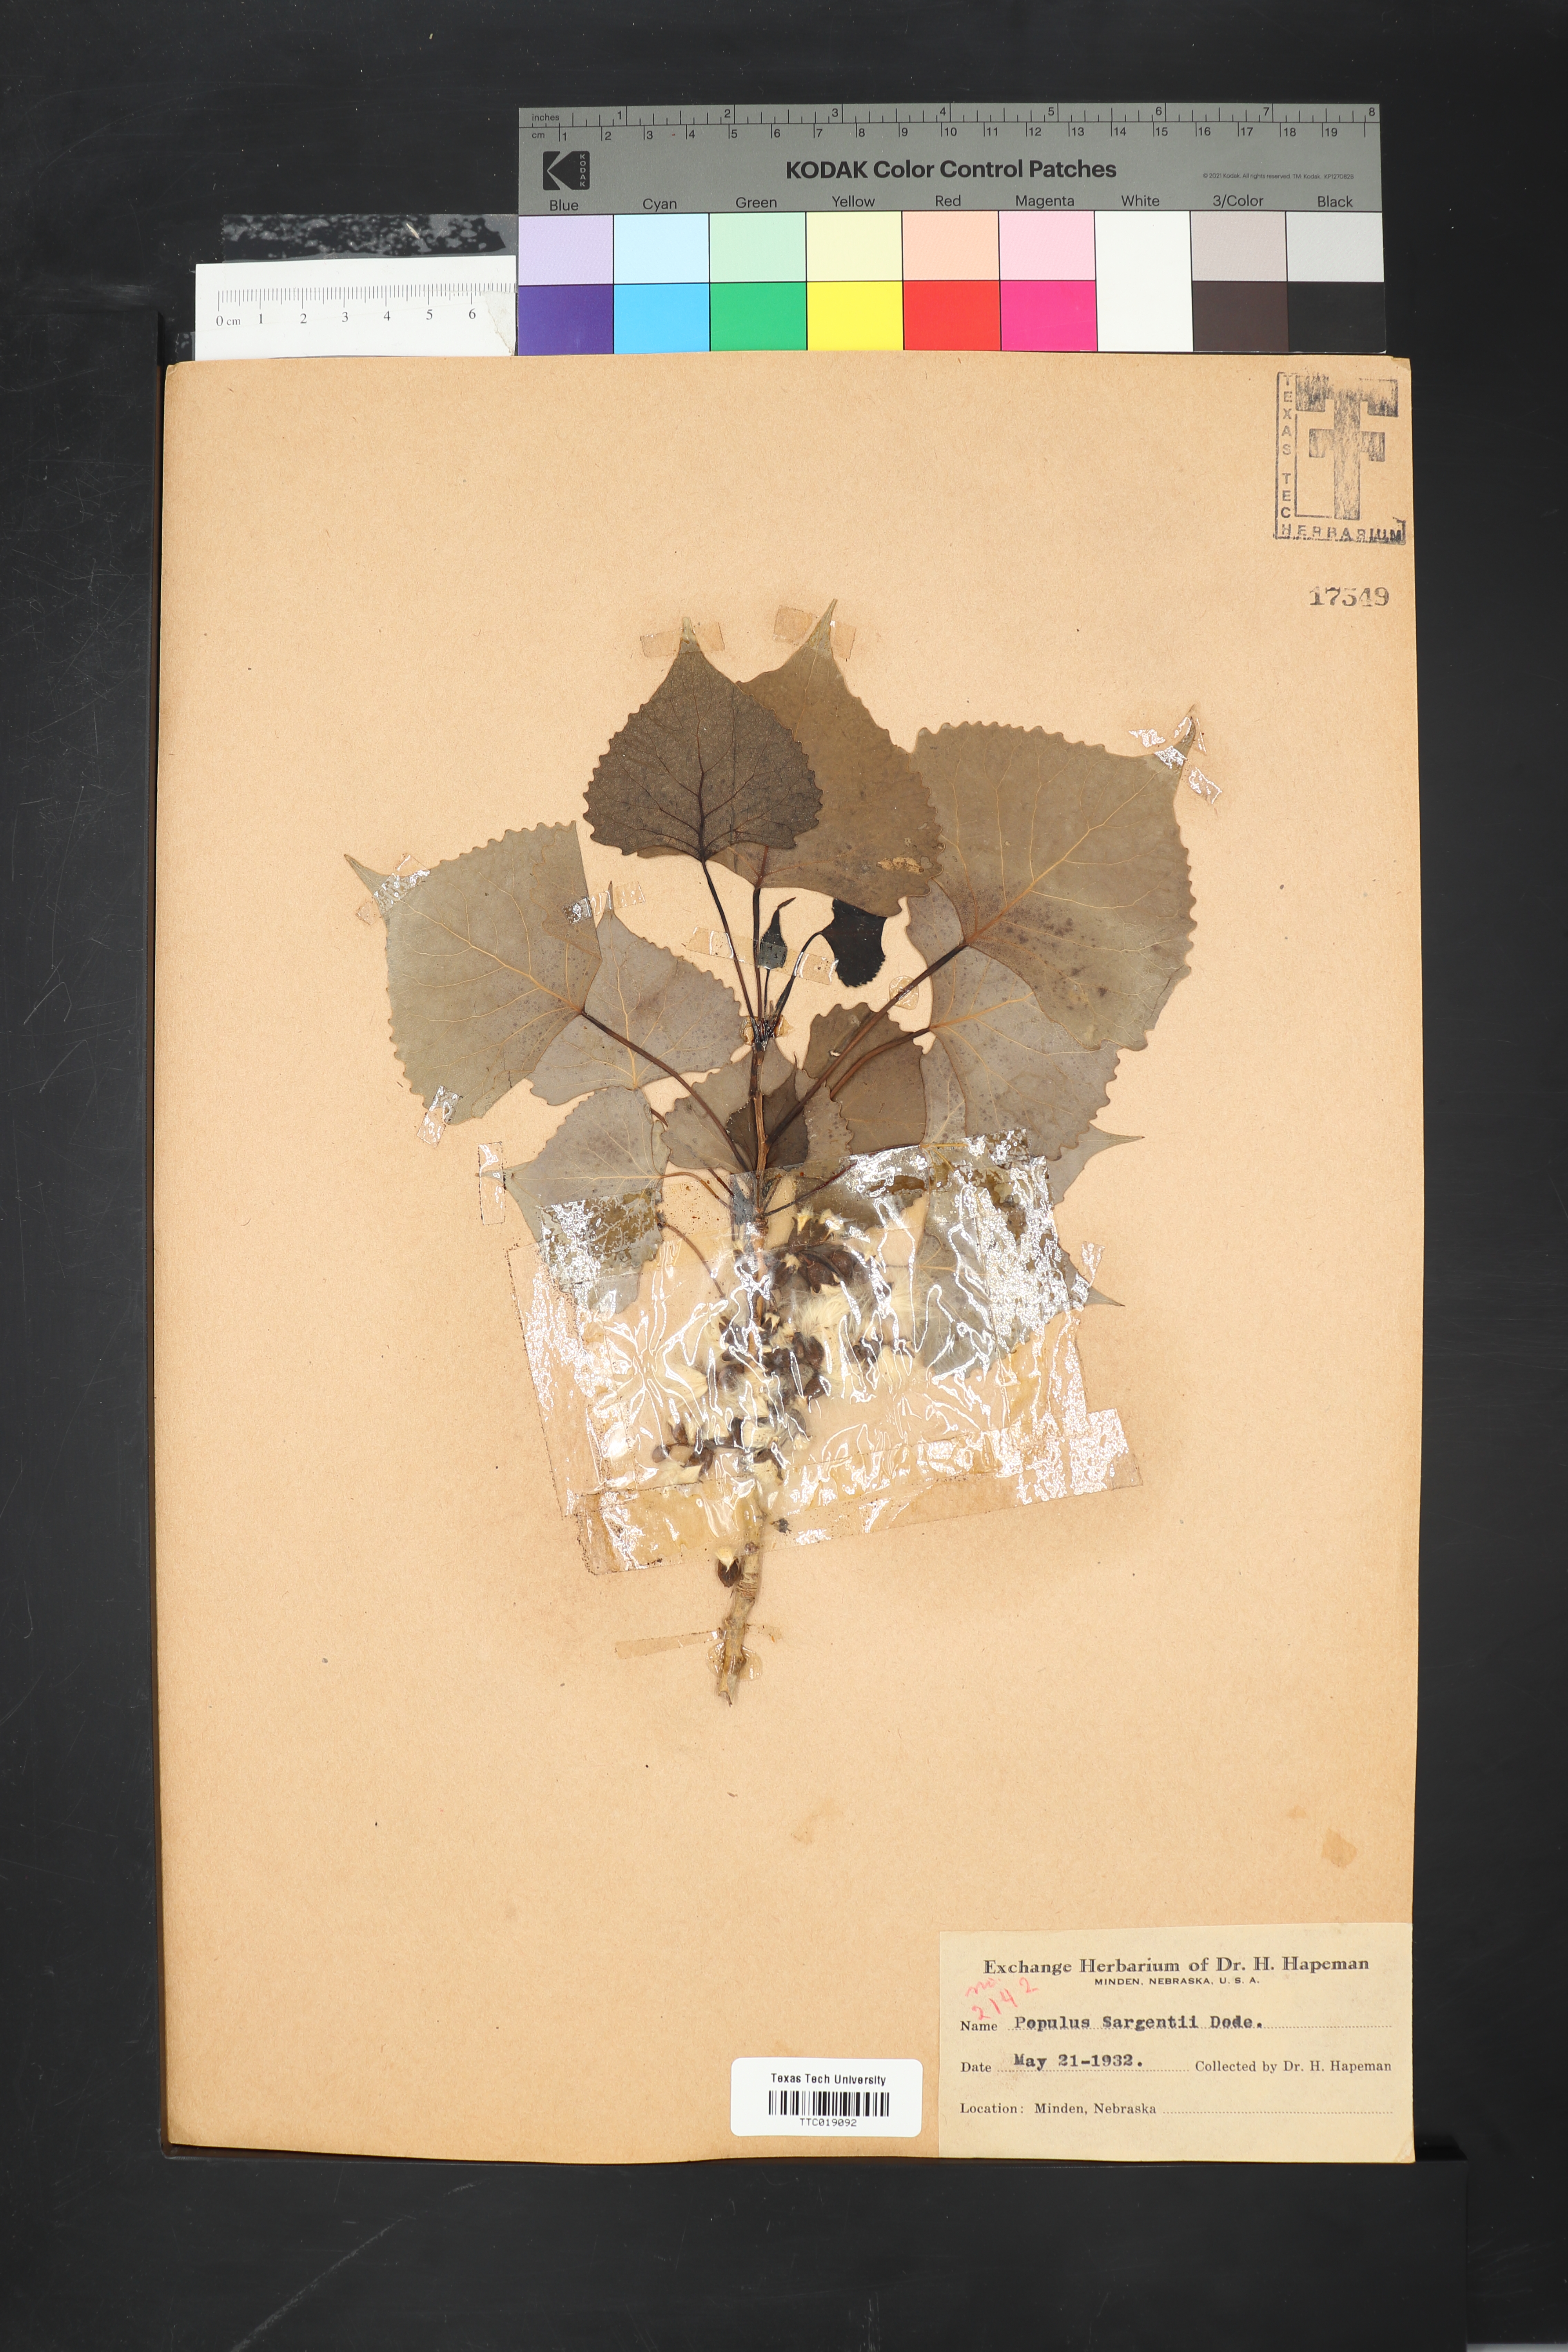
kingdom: Plantae
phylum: Tracheophyta
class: Magnoliopsida
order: Malpighiales
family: Salicaceae
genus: Populus
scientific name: Populus deltoides
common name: Eastern cottonwood
